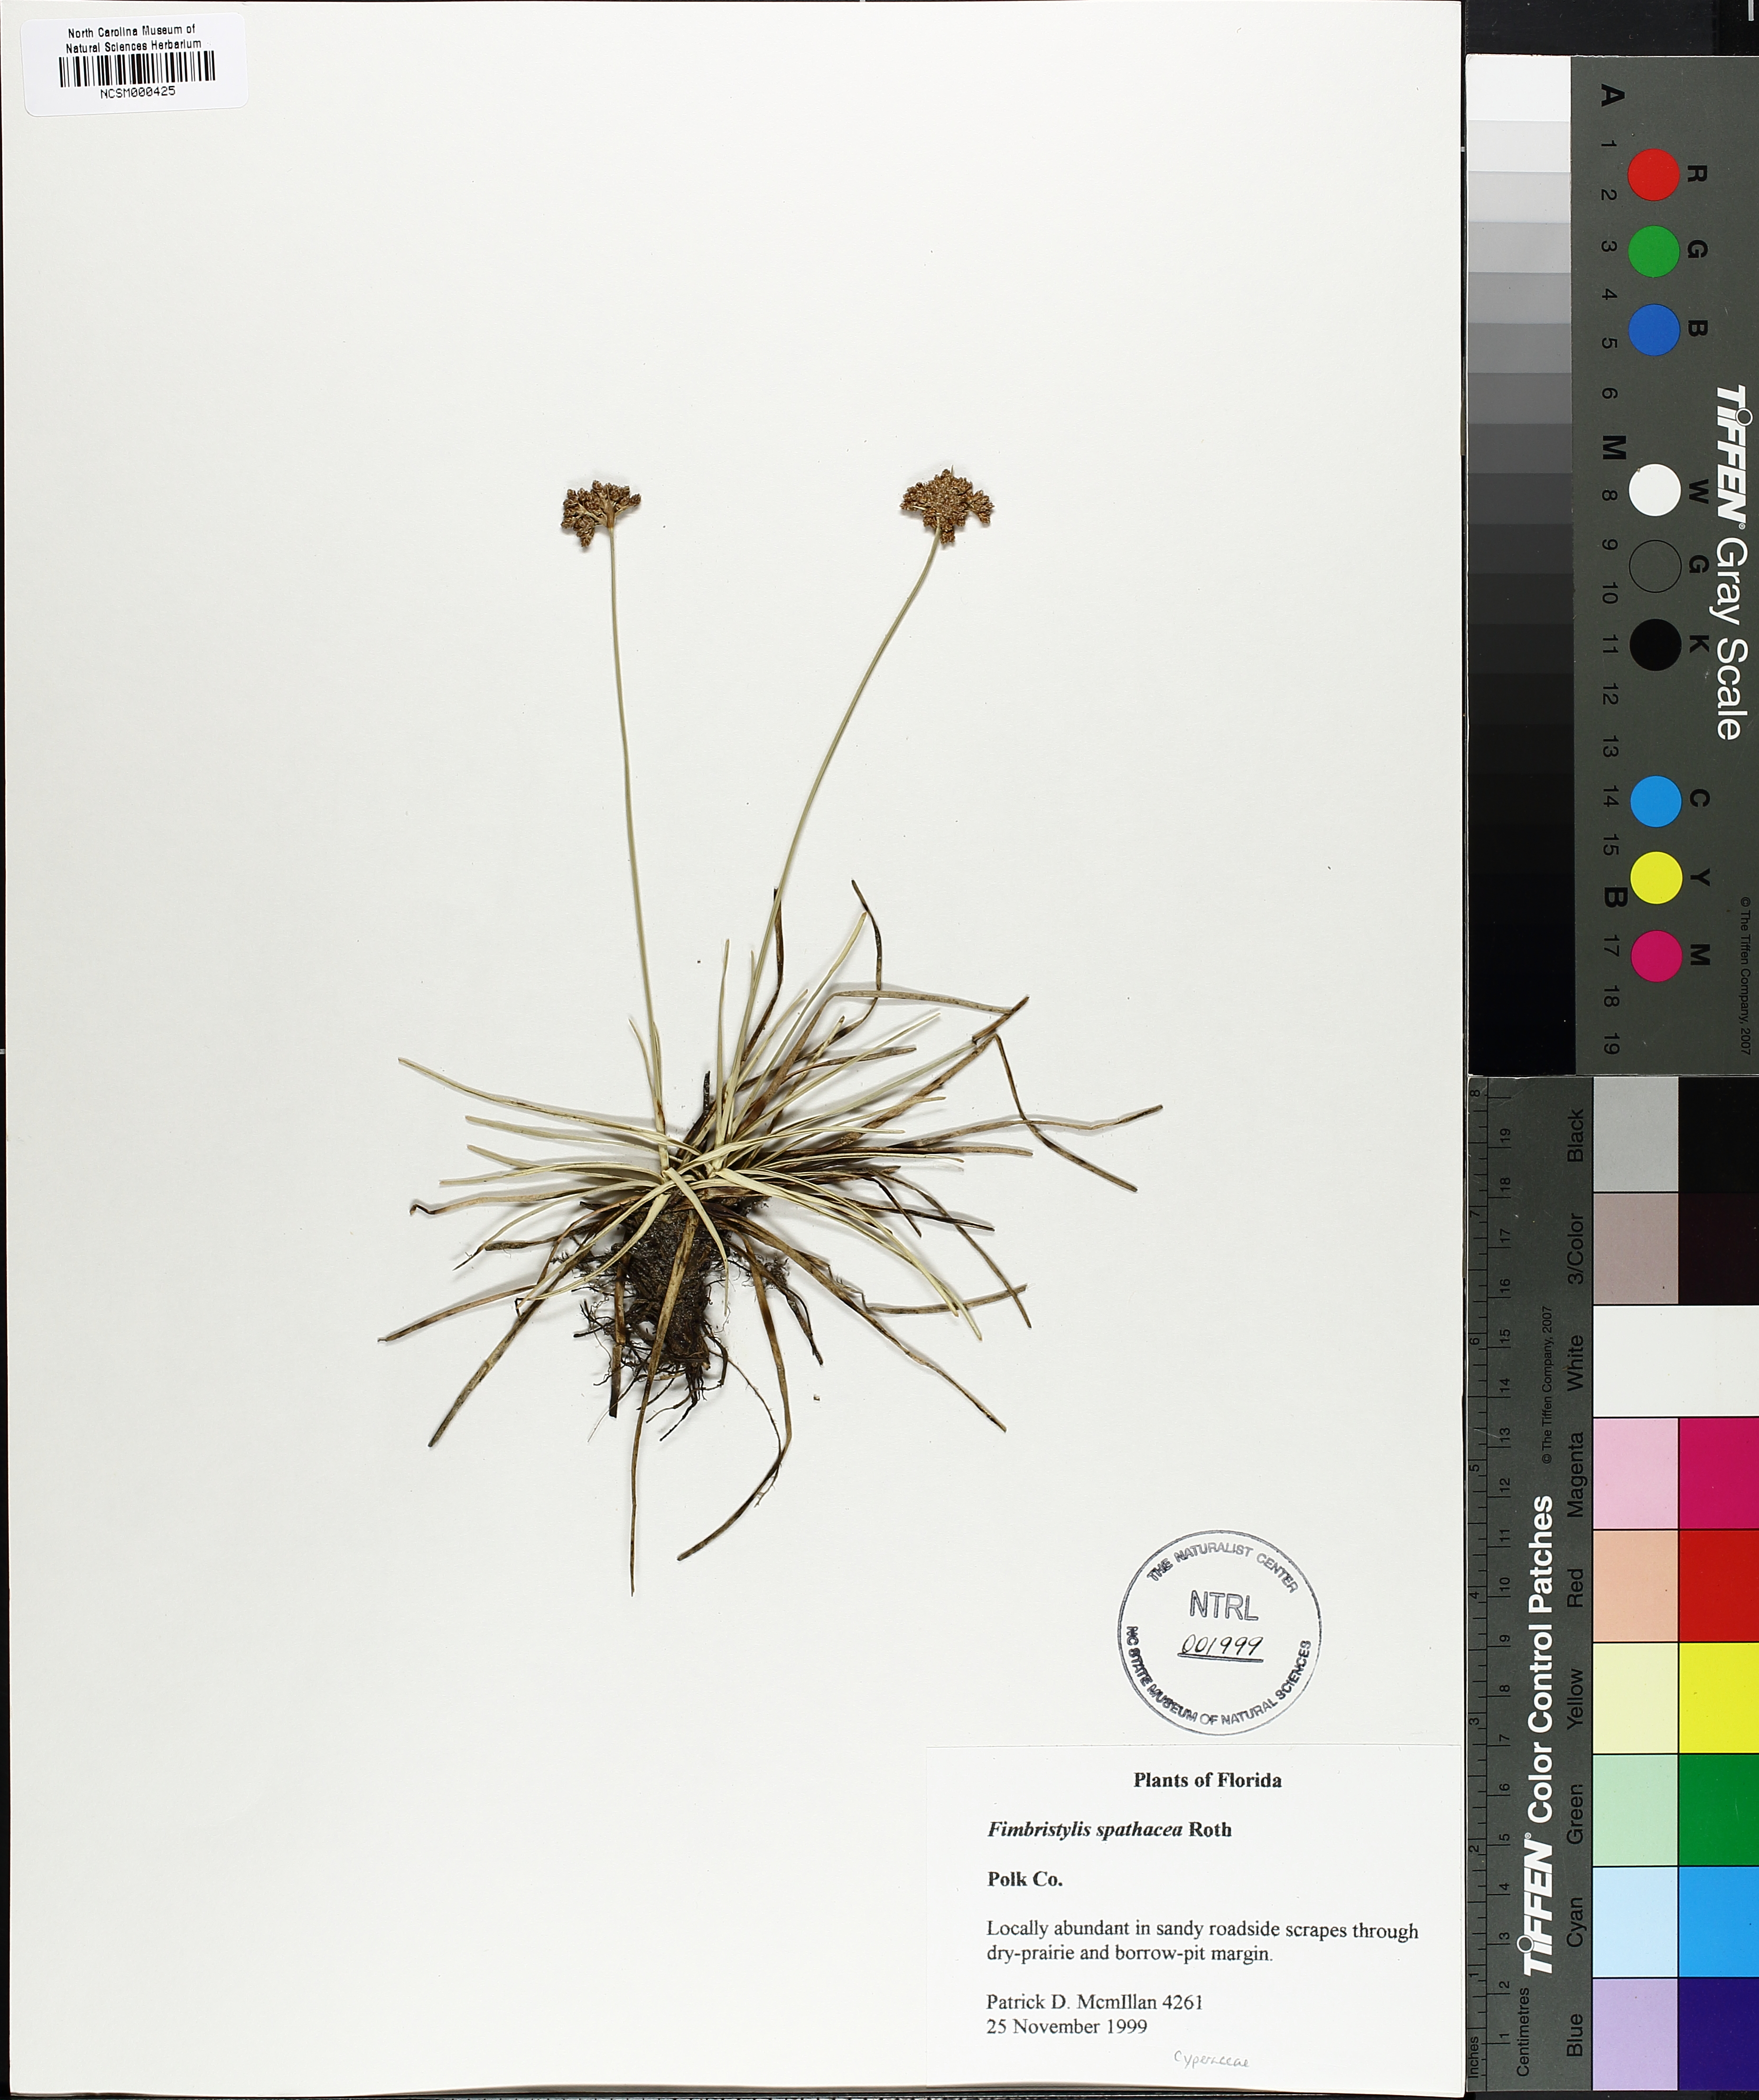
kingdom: Plantae
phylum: Tracheophyta
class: Liliopsida
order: Poales
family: Cyperaceae
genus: Fimbristylis
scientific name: Fimbristylis cymosa
